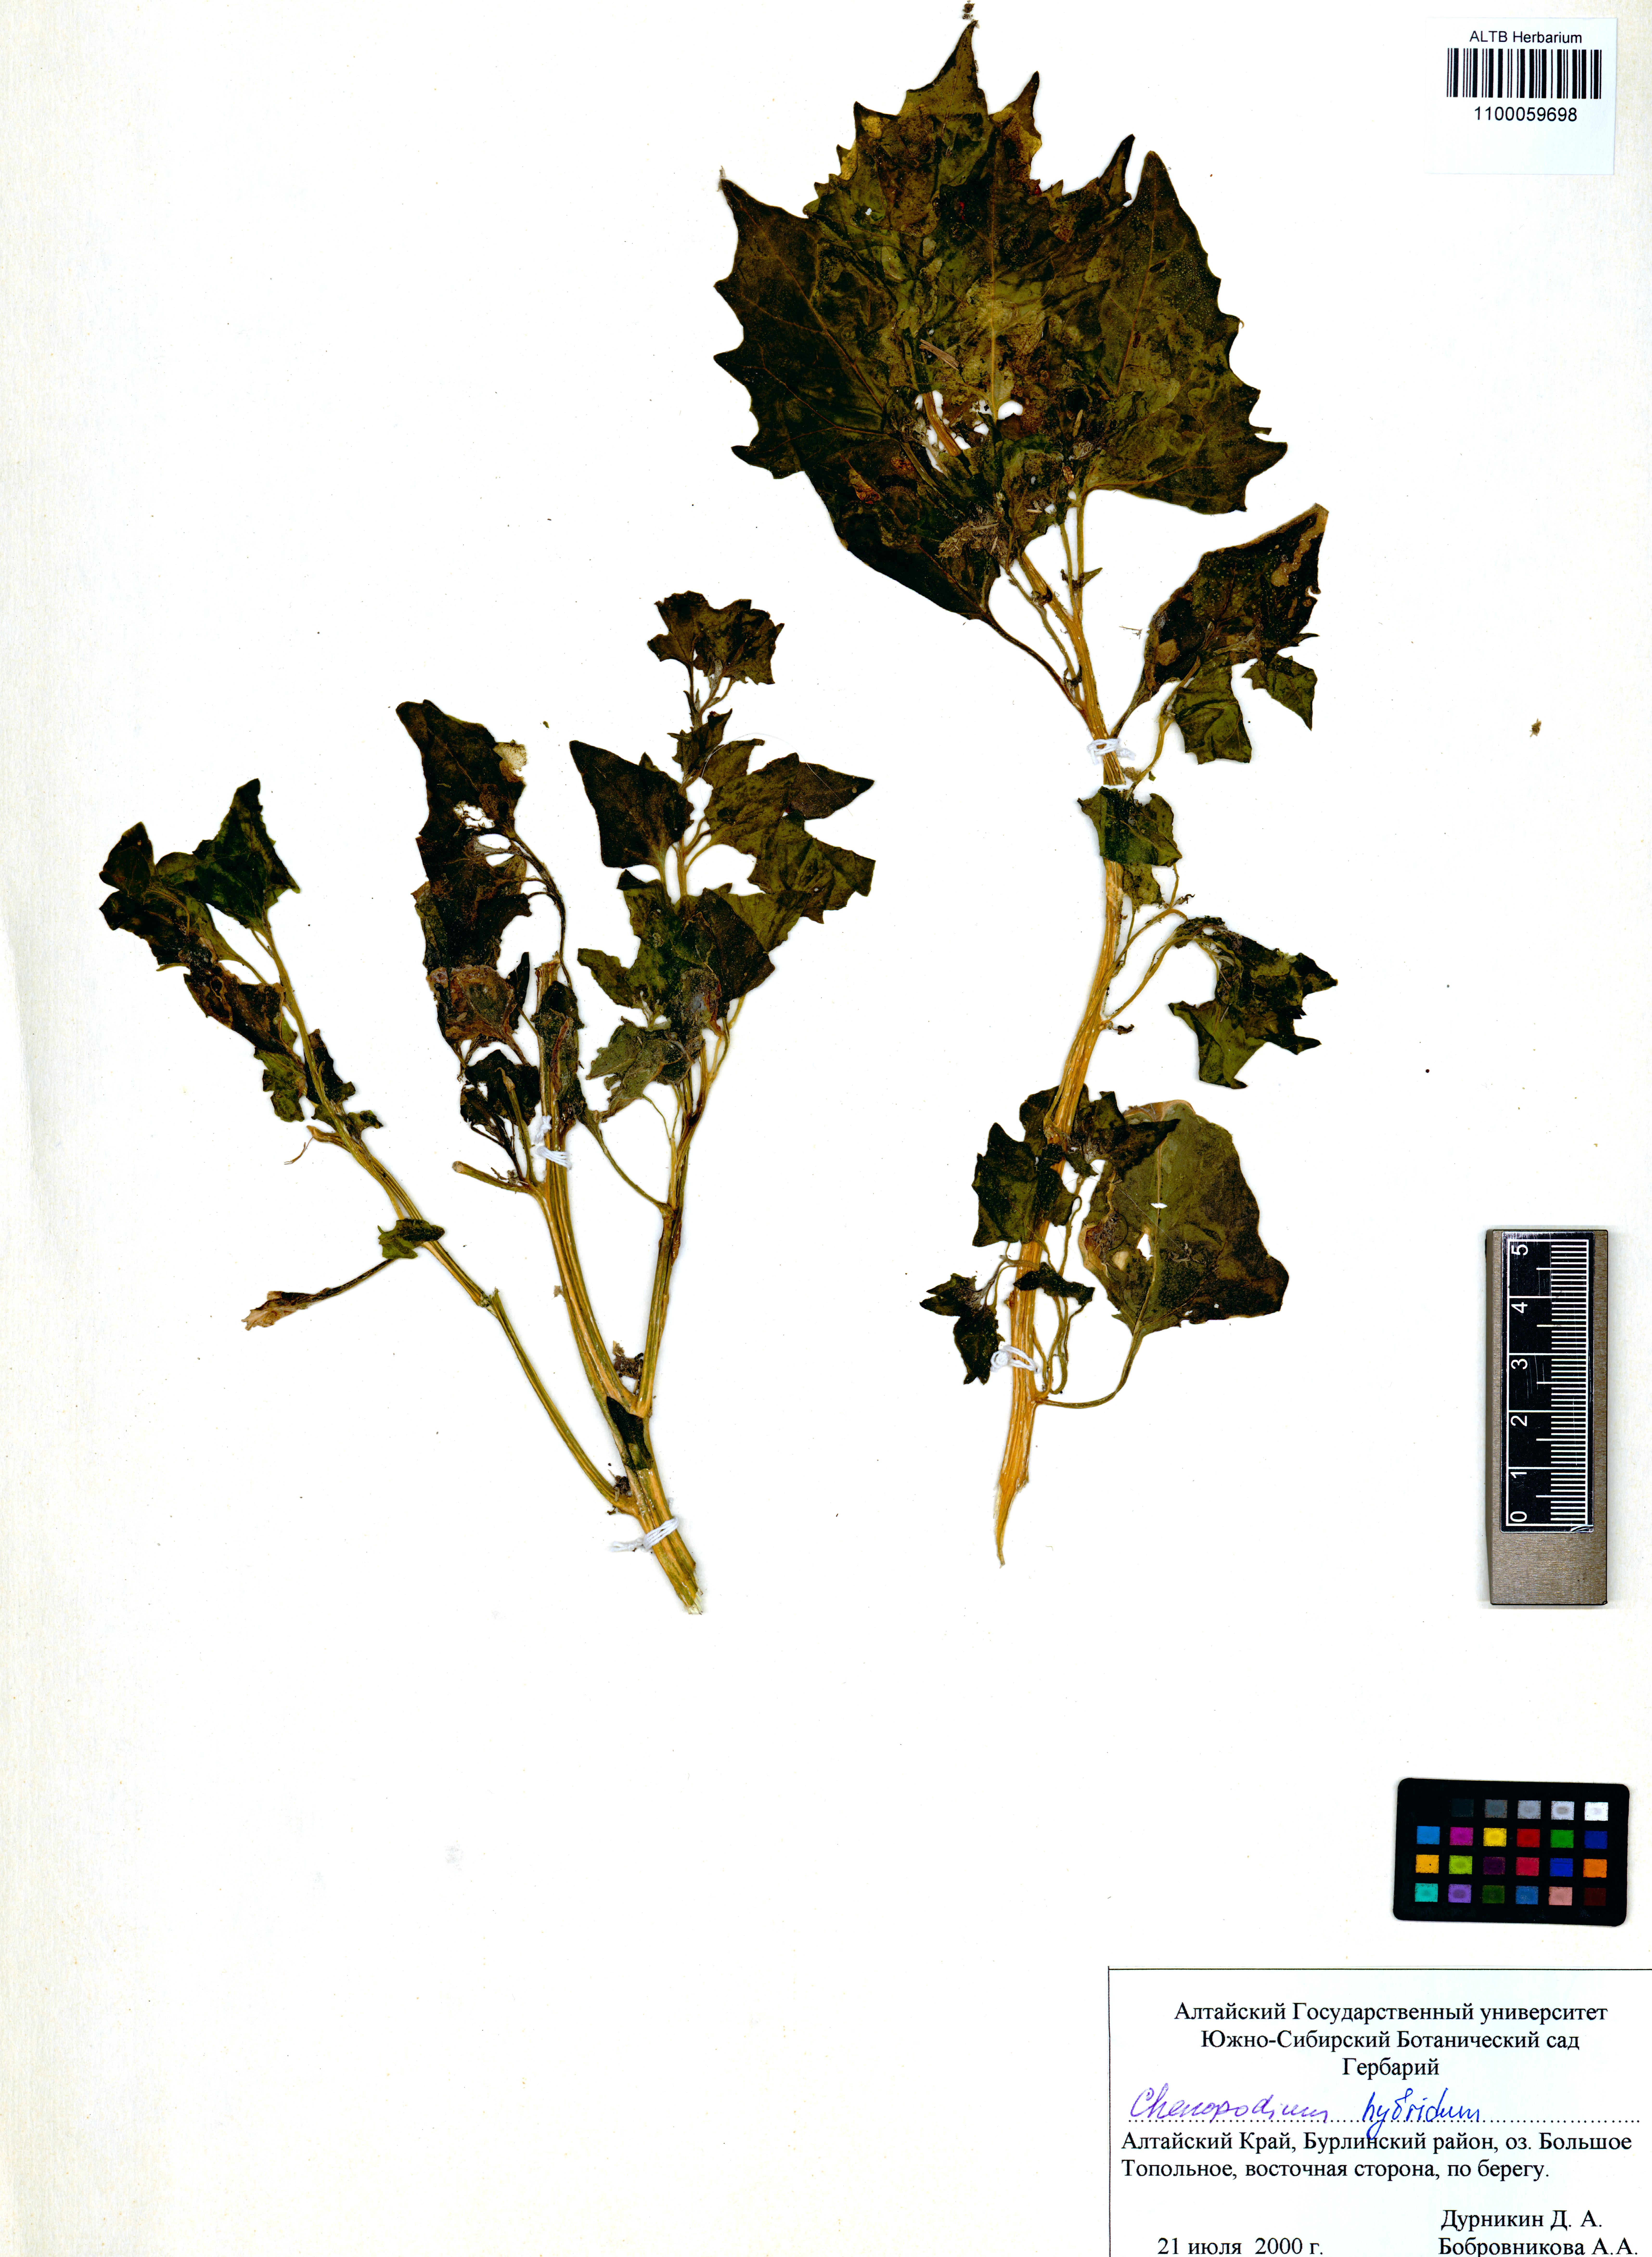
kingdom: Plantae
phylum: Tracheophyta
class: Magnoliopsida
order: Caryophyllales
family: Amaranthaceae
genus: Chenopodiastrum
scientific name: Chenopodiastrum hybridum
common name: Mapleleaf goosefoot
